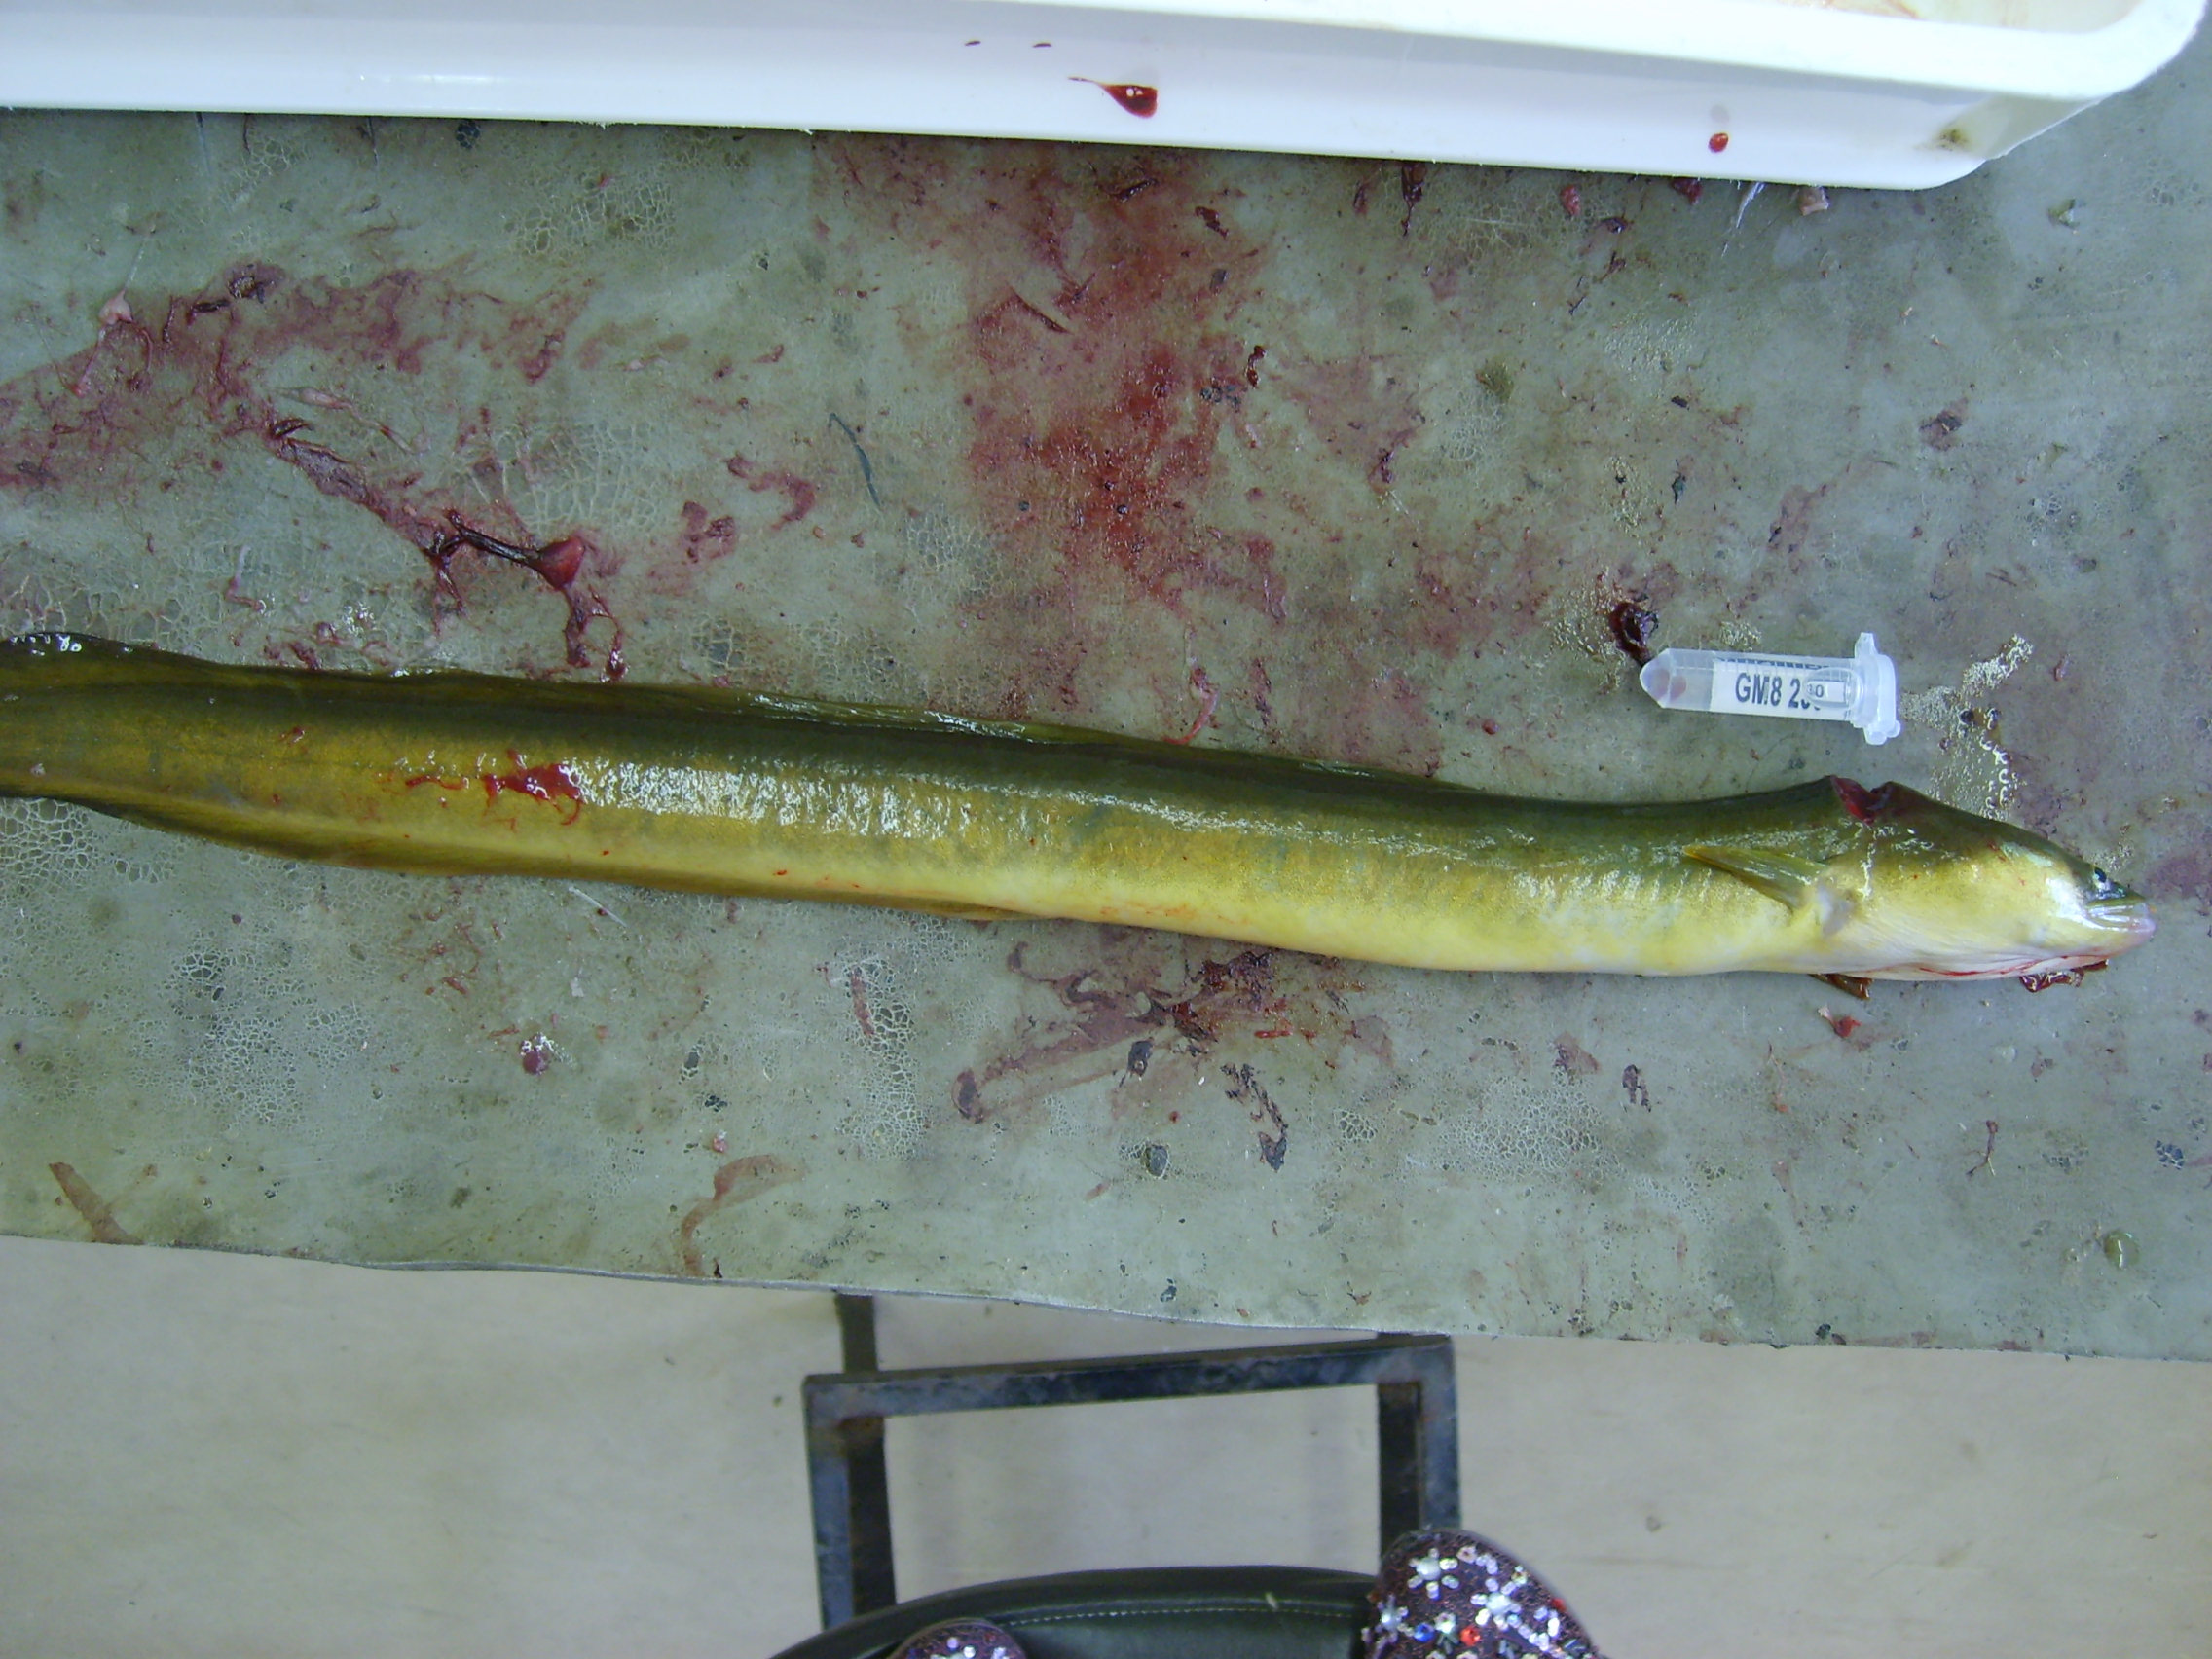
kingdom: Animalia
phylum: Chordata
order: Anguilliformes
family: Anguillidae
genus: Anguilla
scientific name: Anguilla mossambica
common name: African longfin eel
